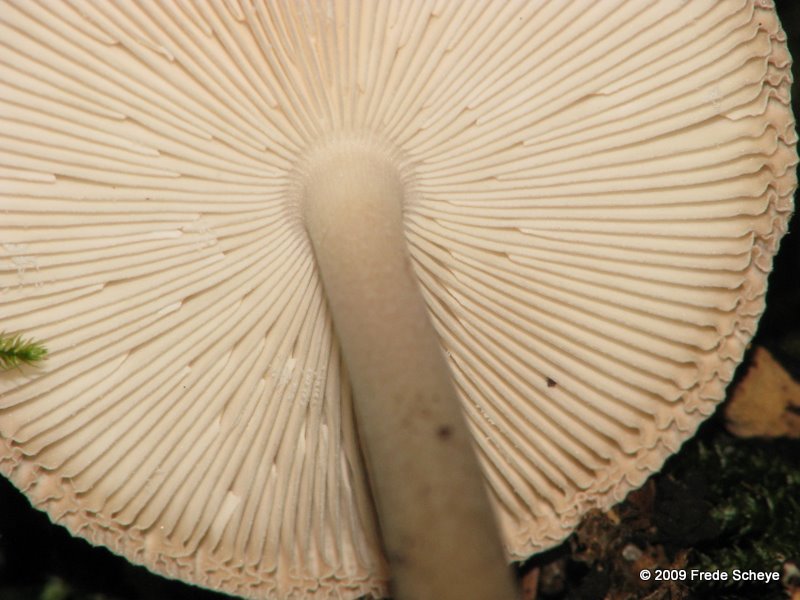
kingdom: Fungi
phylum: Basidiomycota
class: Agaricomycetes
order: Agaricales
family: Amanitaceae
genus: Amanita
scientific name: Amanita
